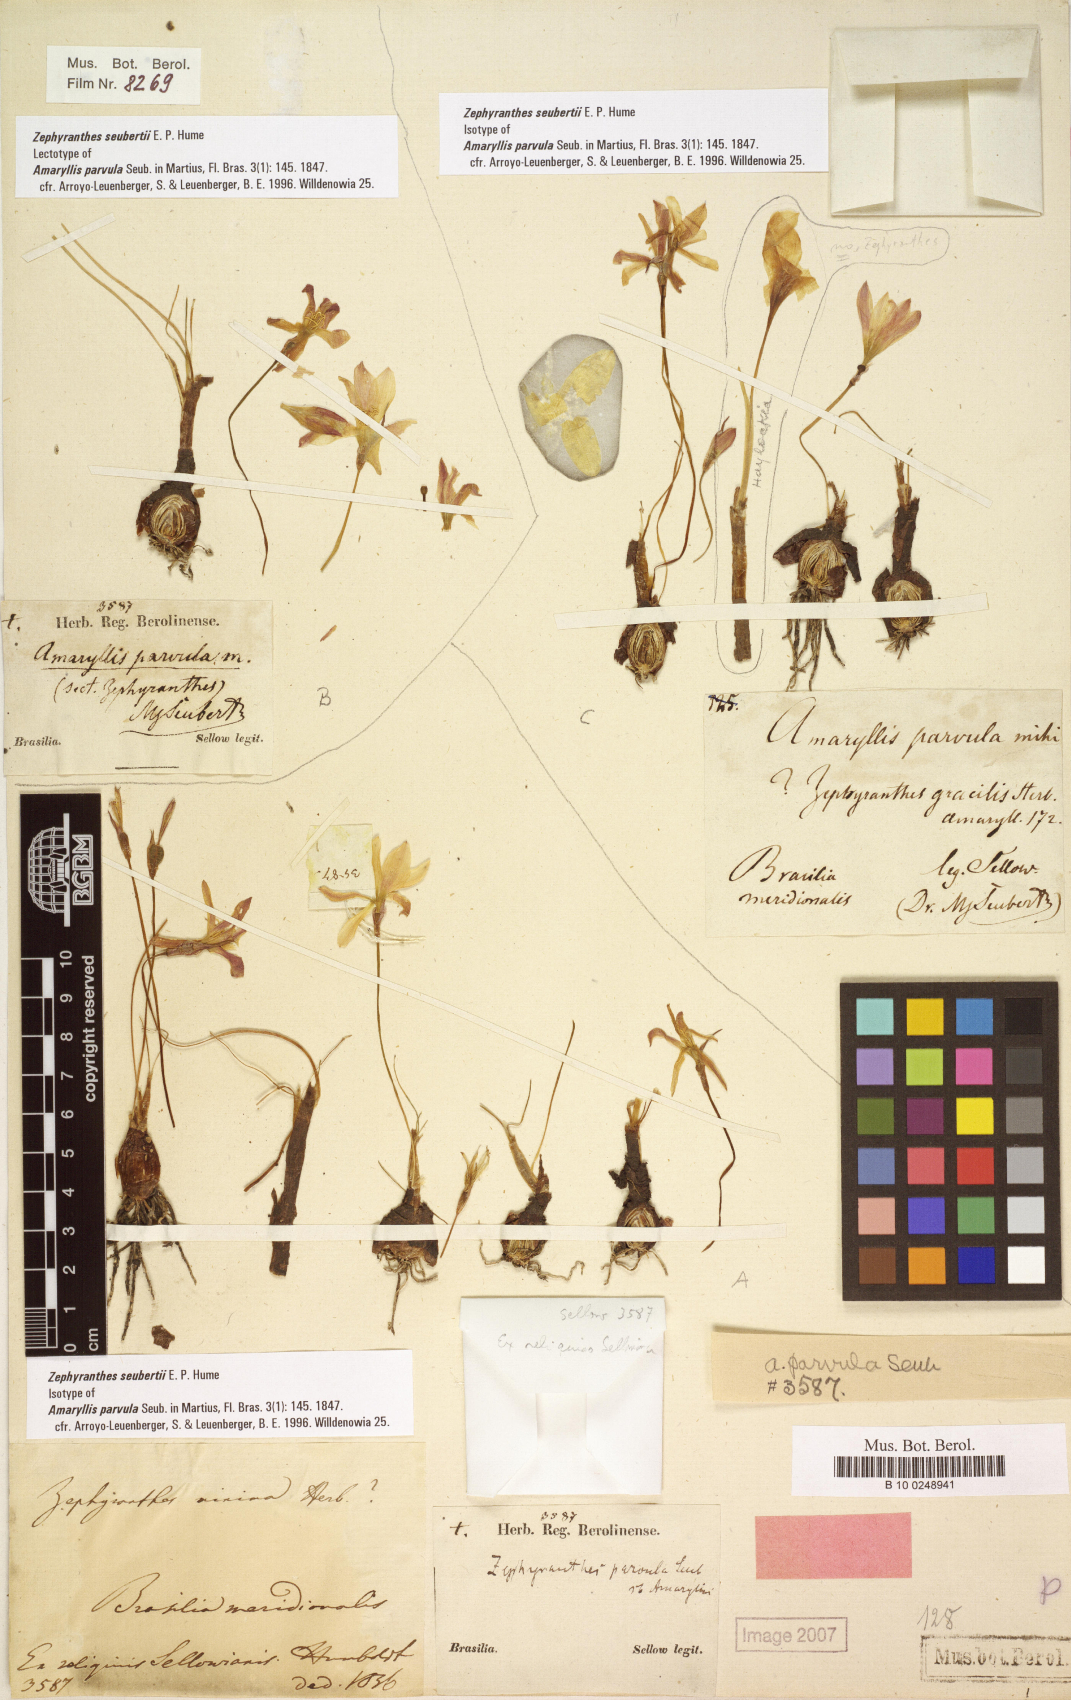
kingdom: Plantae
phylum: Tracheophyta
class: Liliopsida
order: Asparagales
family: Amaryllidaceae
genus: Zephyranthes
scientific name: Zephyranthes minima
